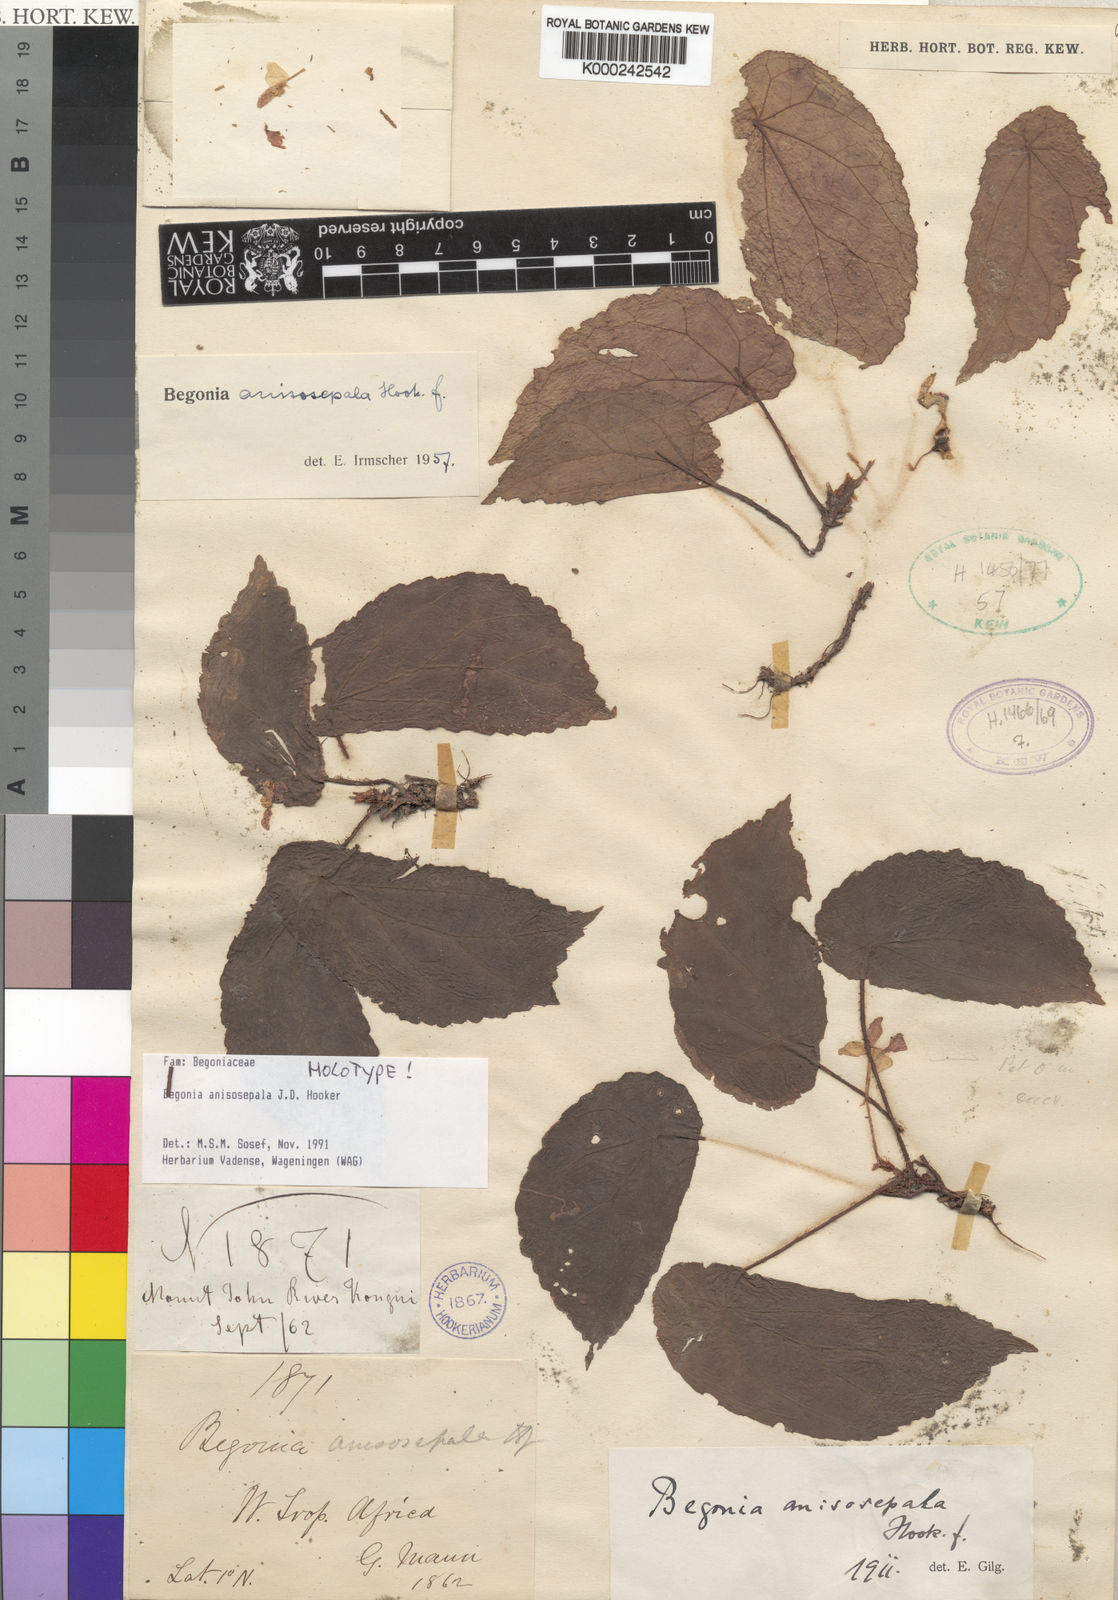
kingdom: Plantae
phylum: Tracheophyta
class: Magnoliopsida
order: Cucurbitales
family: Begoniaceae
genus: Begonia
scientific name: Begonia anisosepala
